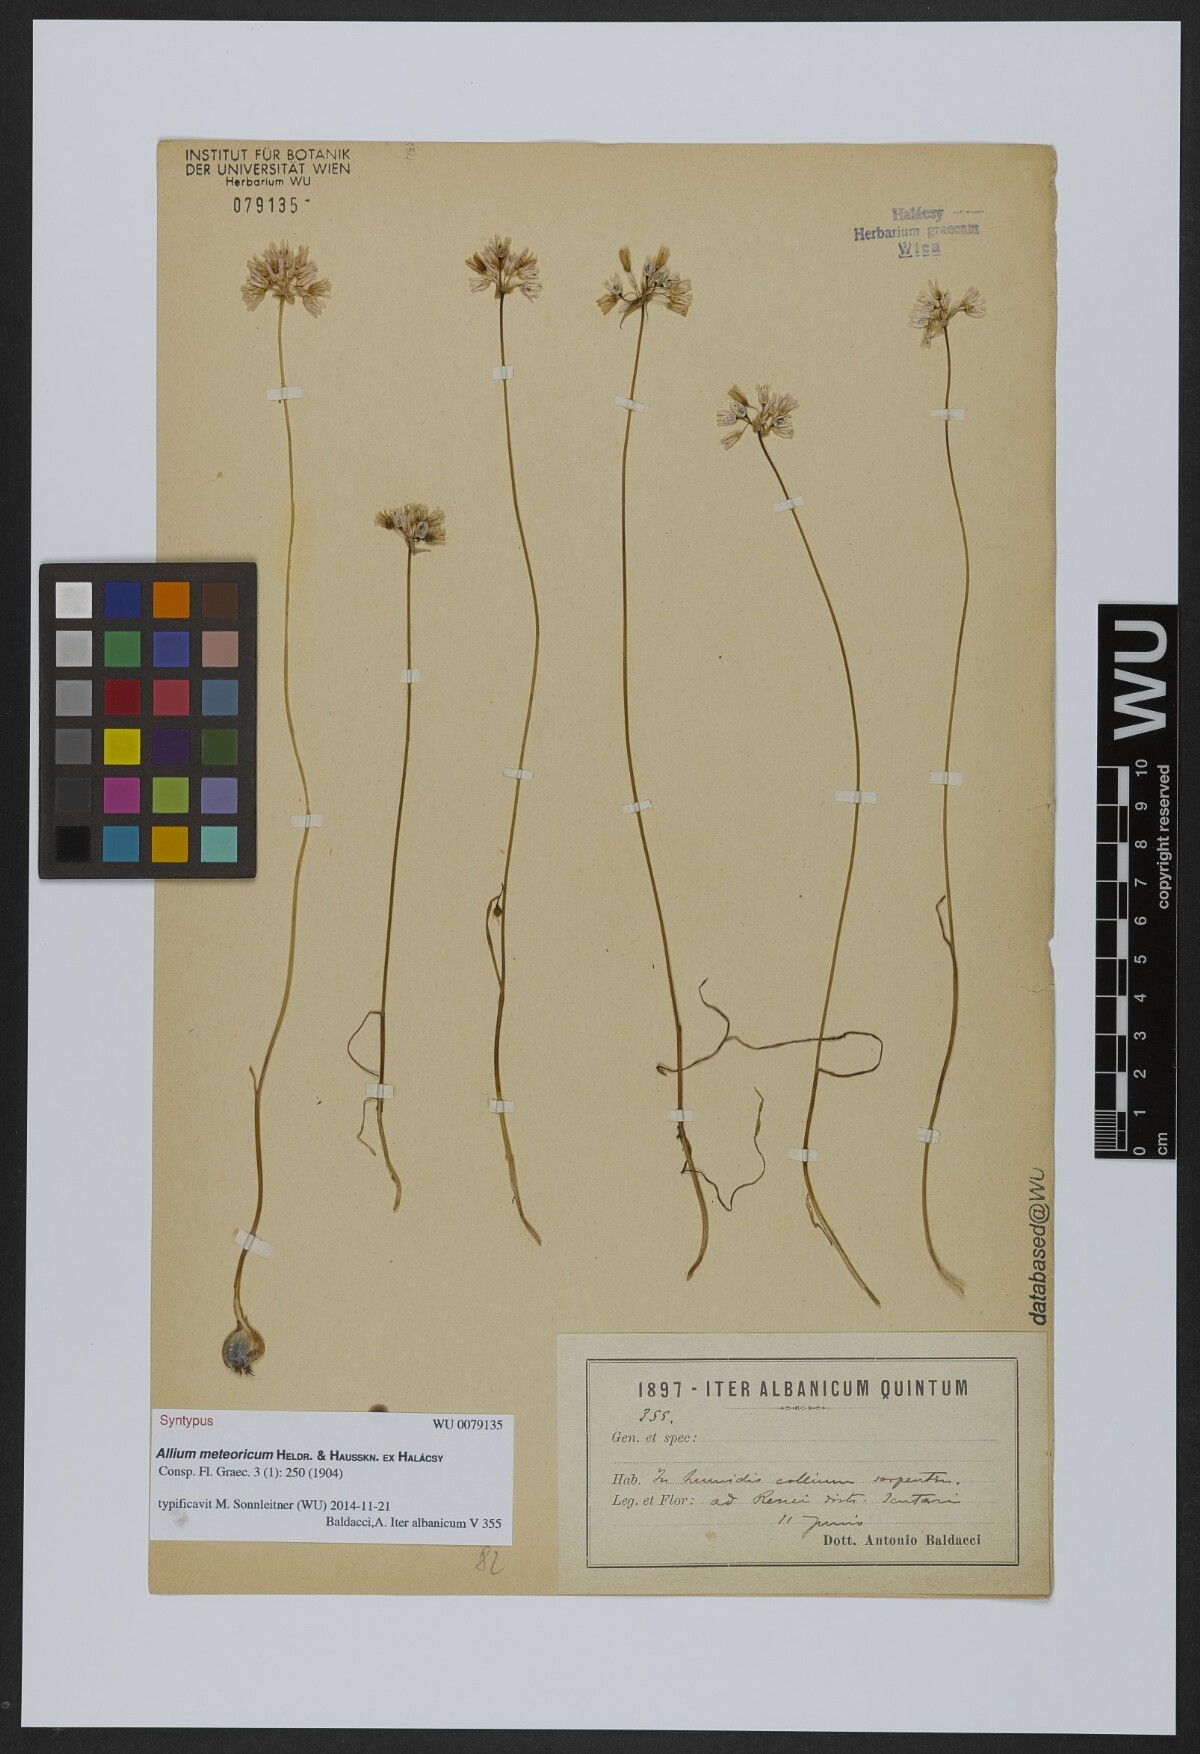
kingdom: Plantae
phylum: Tracheophyta
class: Liliopsida
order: Asparagales
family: Amaryllidaceae
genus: Allium
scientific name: Allium meteoricum
